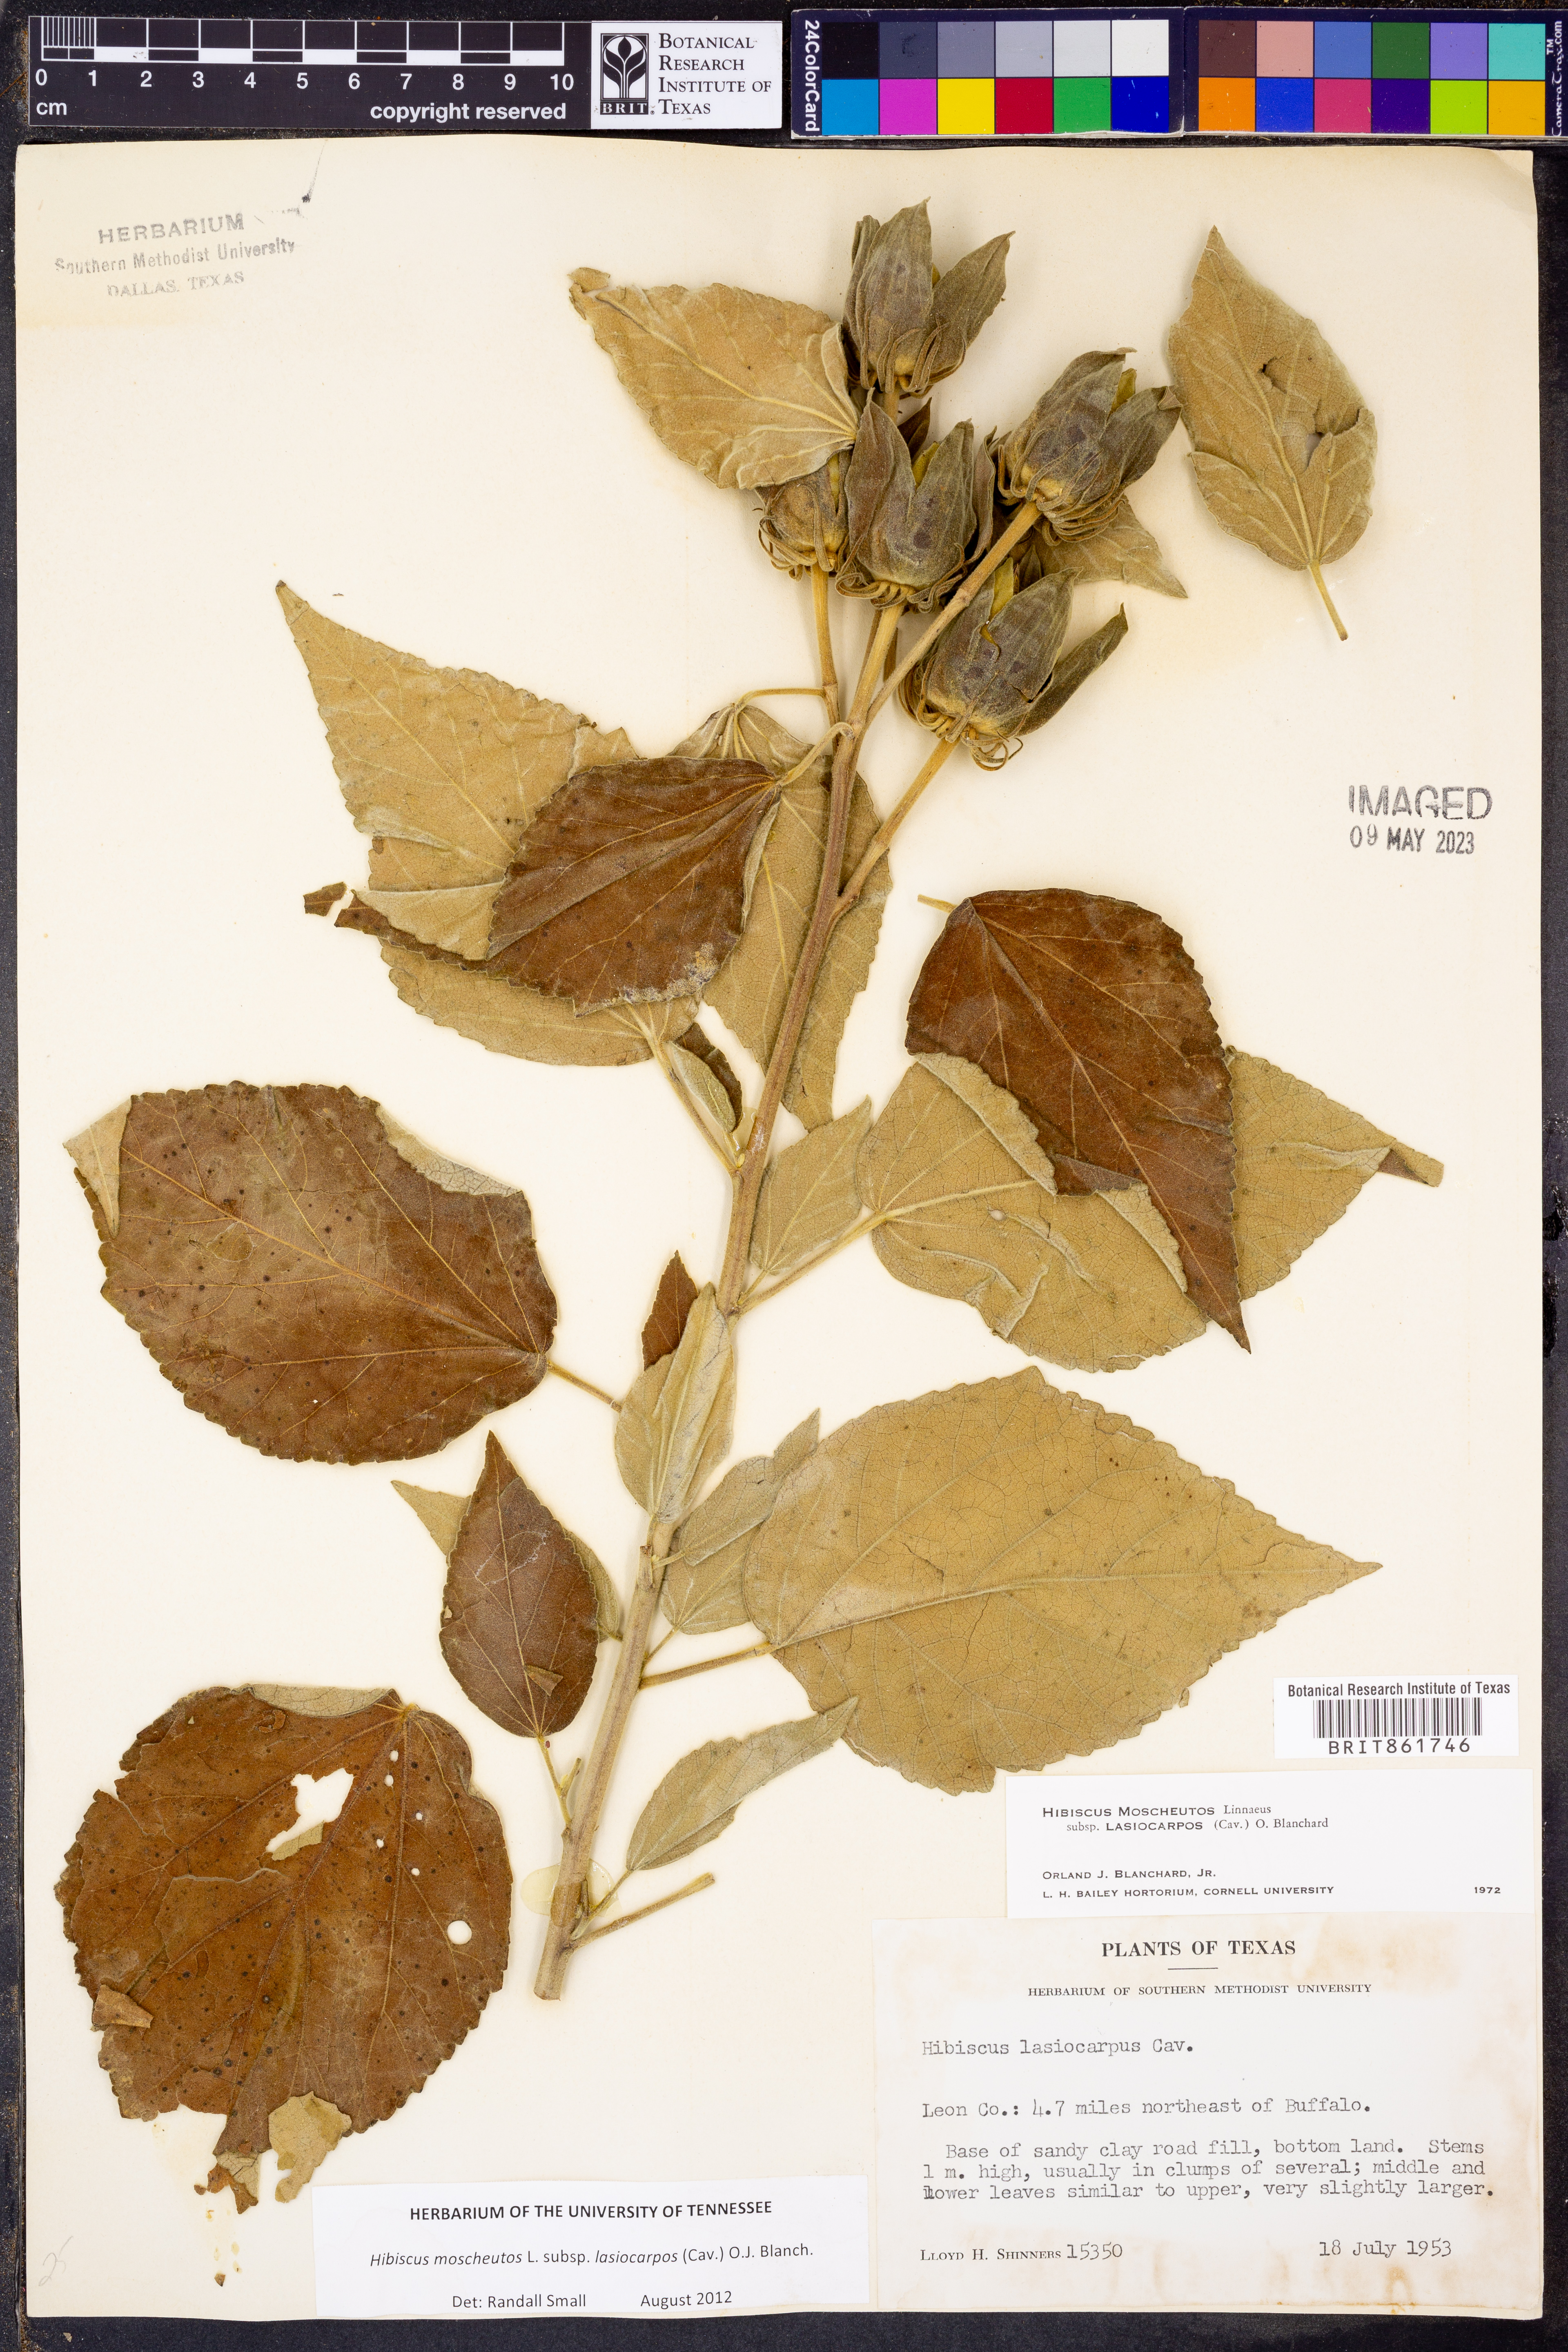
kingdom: Plantae
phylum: Tracheophyta
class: Magnoliopsida
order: Malvales
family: Malvaceae
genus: Hibiscus
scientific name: Hibiscus moscheutos
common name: Common rose-mallow
